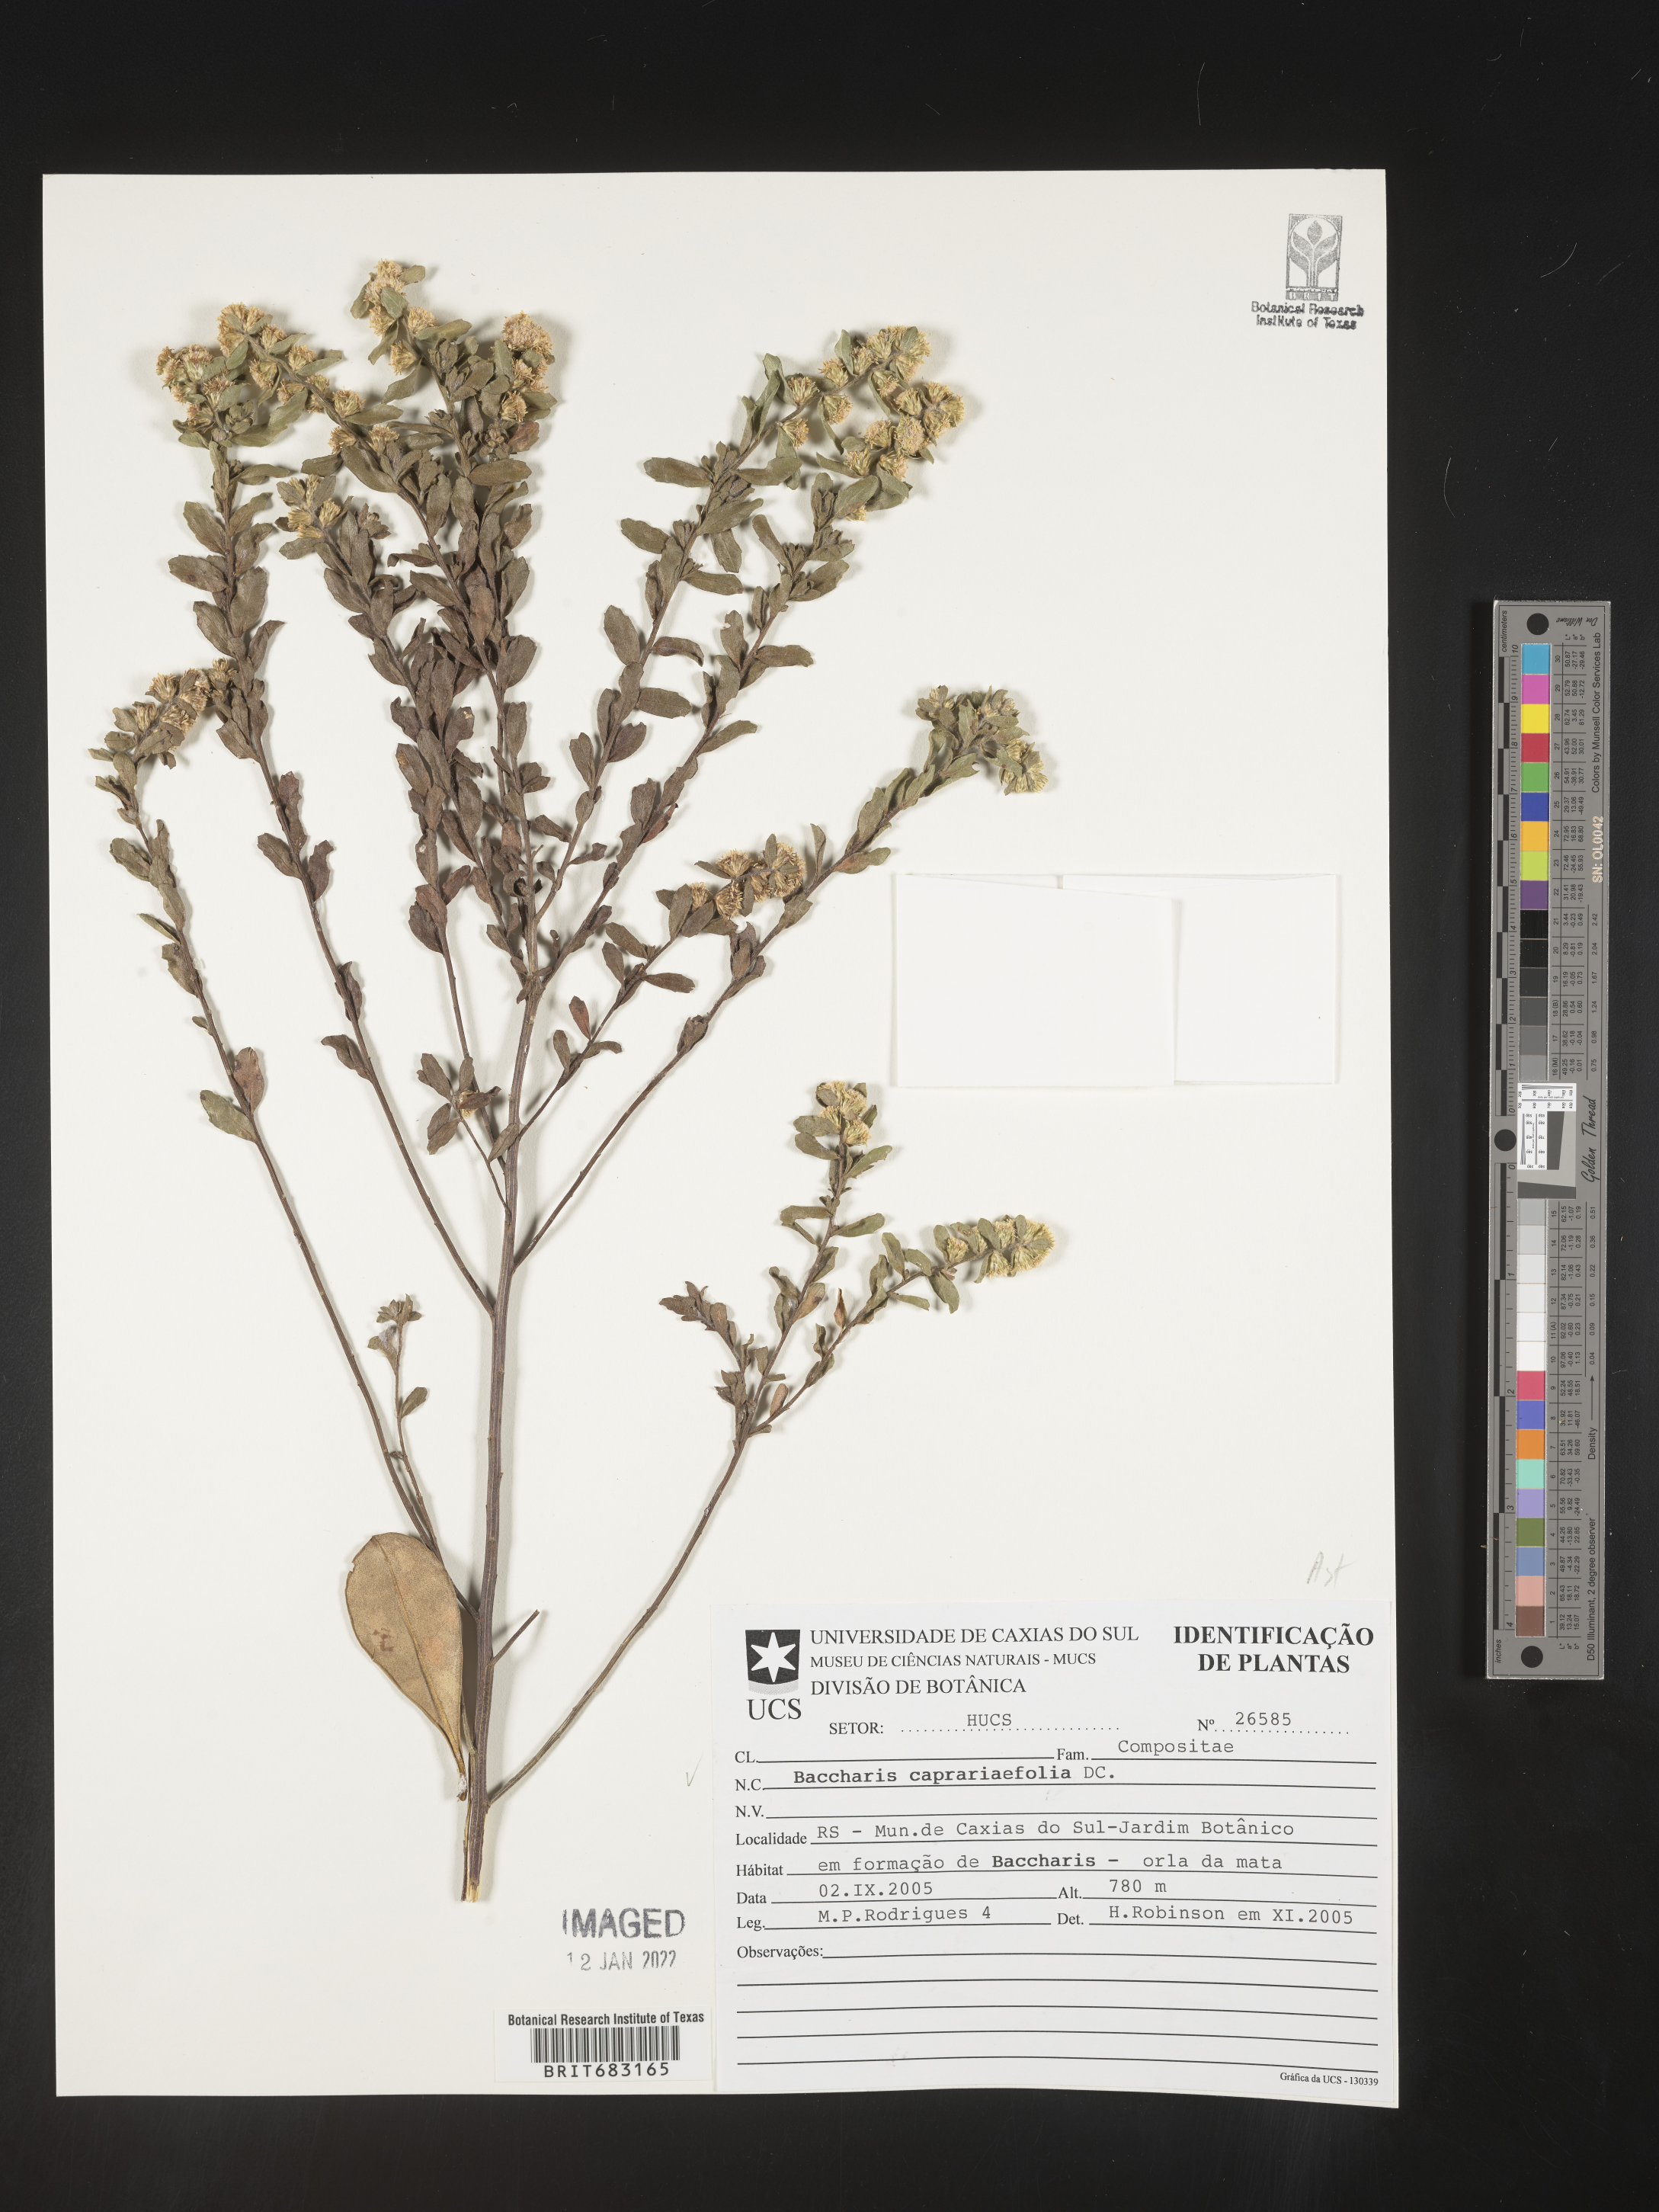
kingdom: Plantae
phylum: Tracheophyta
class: Magnoliopsida
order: Asterales
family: Asteraceae
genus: Baccharis
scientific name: Baccharis
